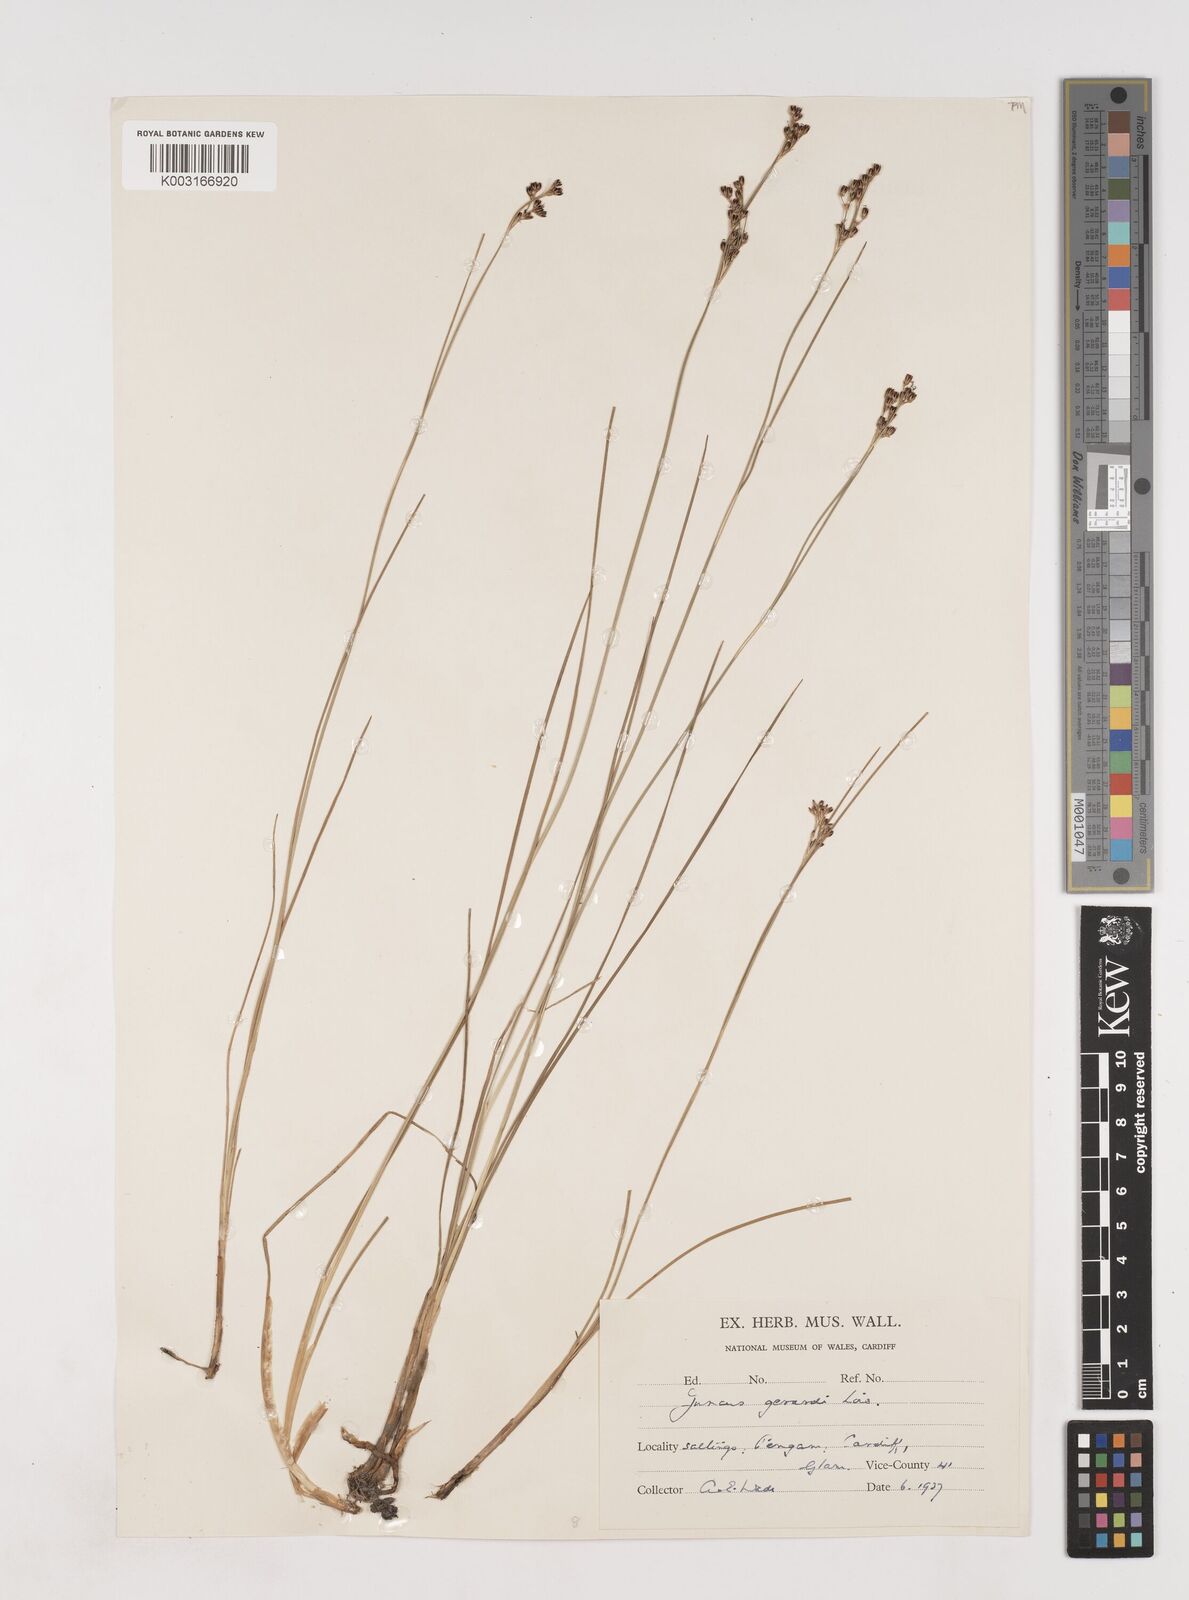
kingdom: Plantae
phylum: Tracheophyta
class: Liliopsida
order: Poales
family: Juncaceae
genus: Juncus
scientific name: Juncus gerardi
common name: Saltmarsh rush
